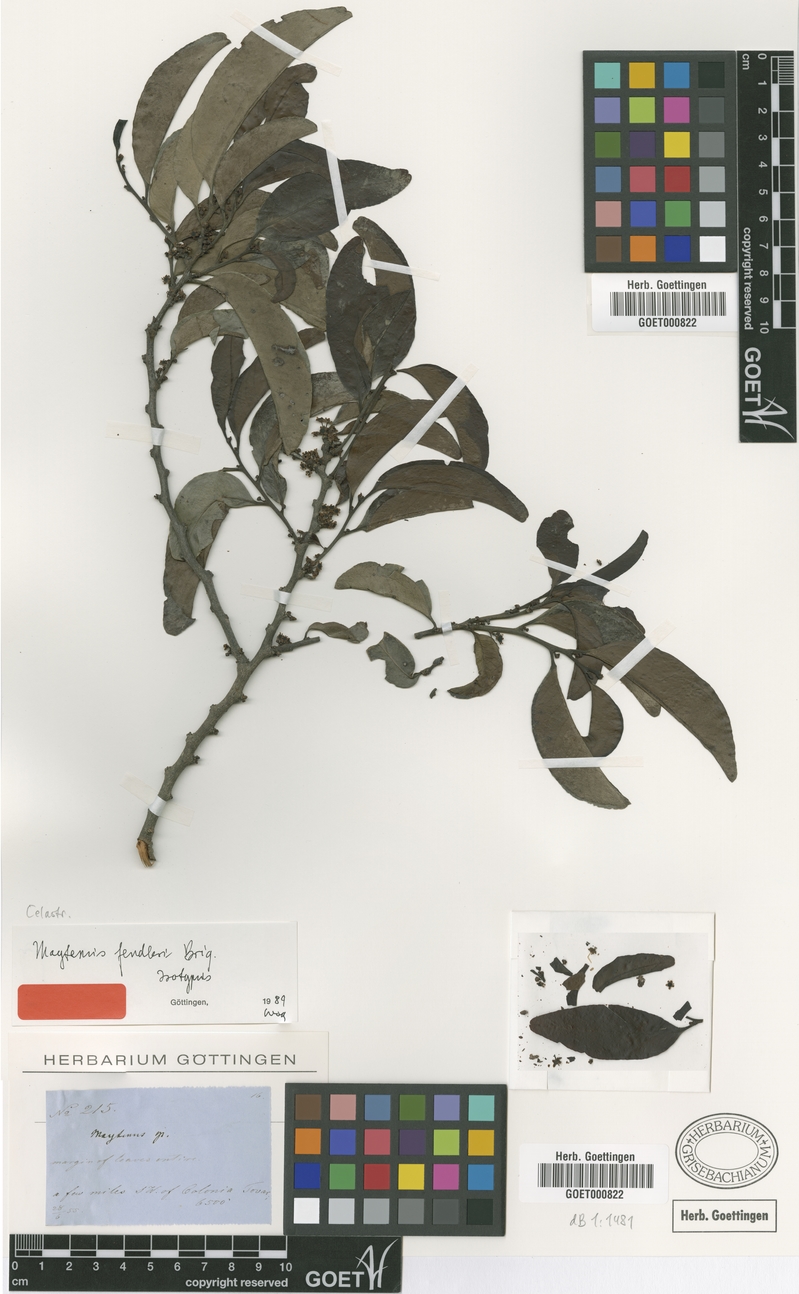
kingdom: Plantae
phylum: Tracheophyta
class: Magnoliopsida
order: Celastrales
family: Celastraceae
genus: Maytenus
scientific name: Maytenus fendleri
